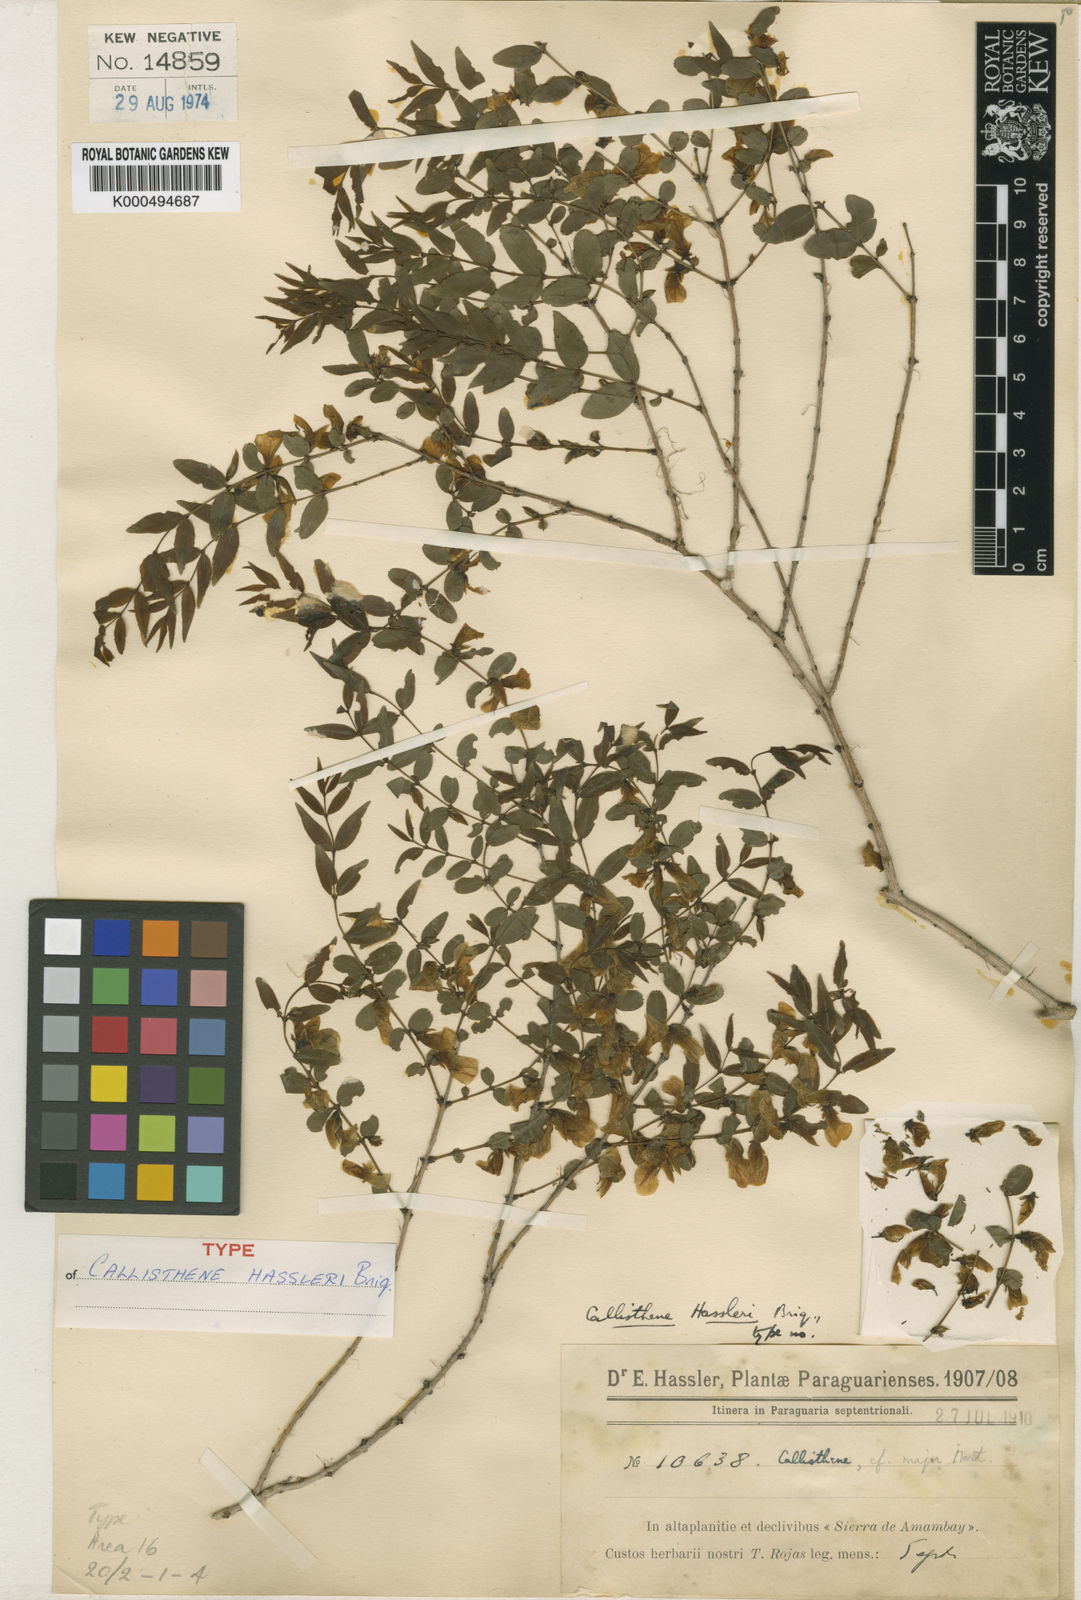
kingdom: Plantae
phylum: Tracheophyta
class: Magnoliopsida
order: Myrtales
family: Vochysiaceae
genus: Callisthene
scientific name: Callisthene hassleri
